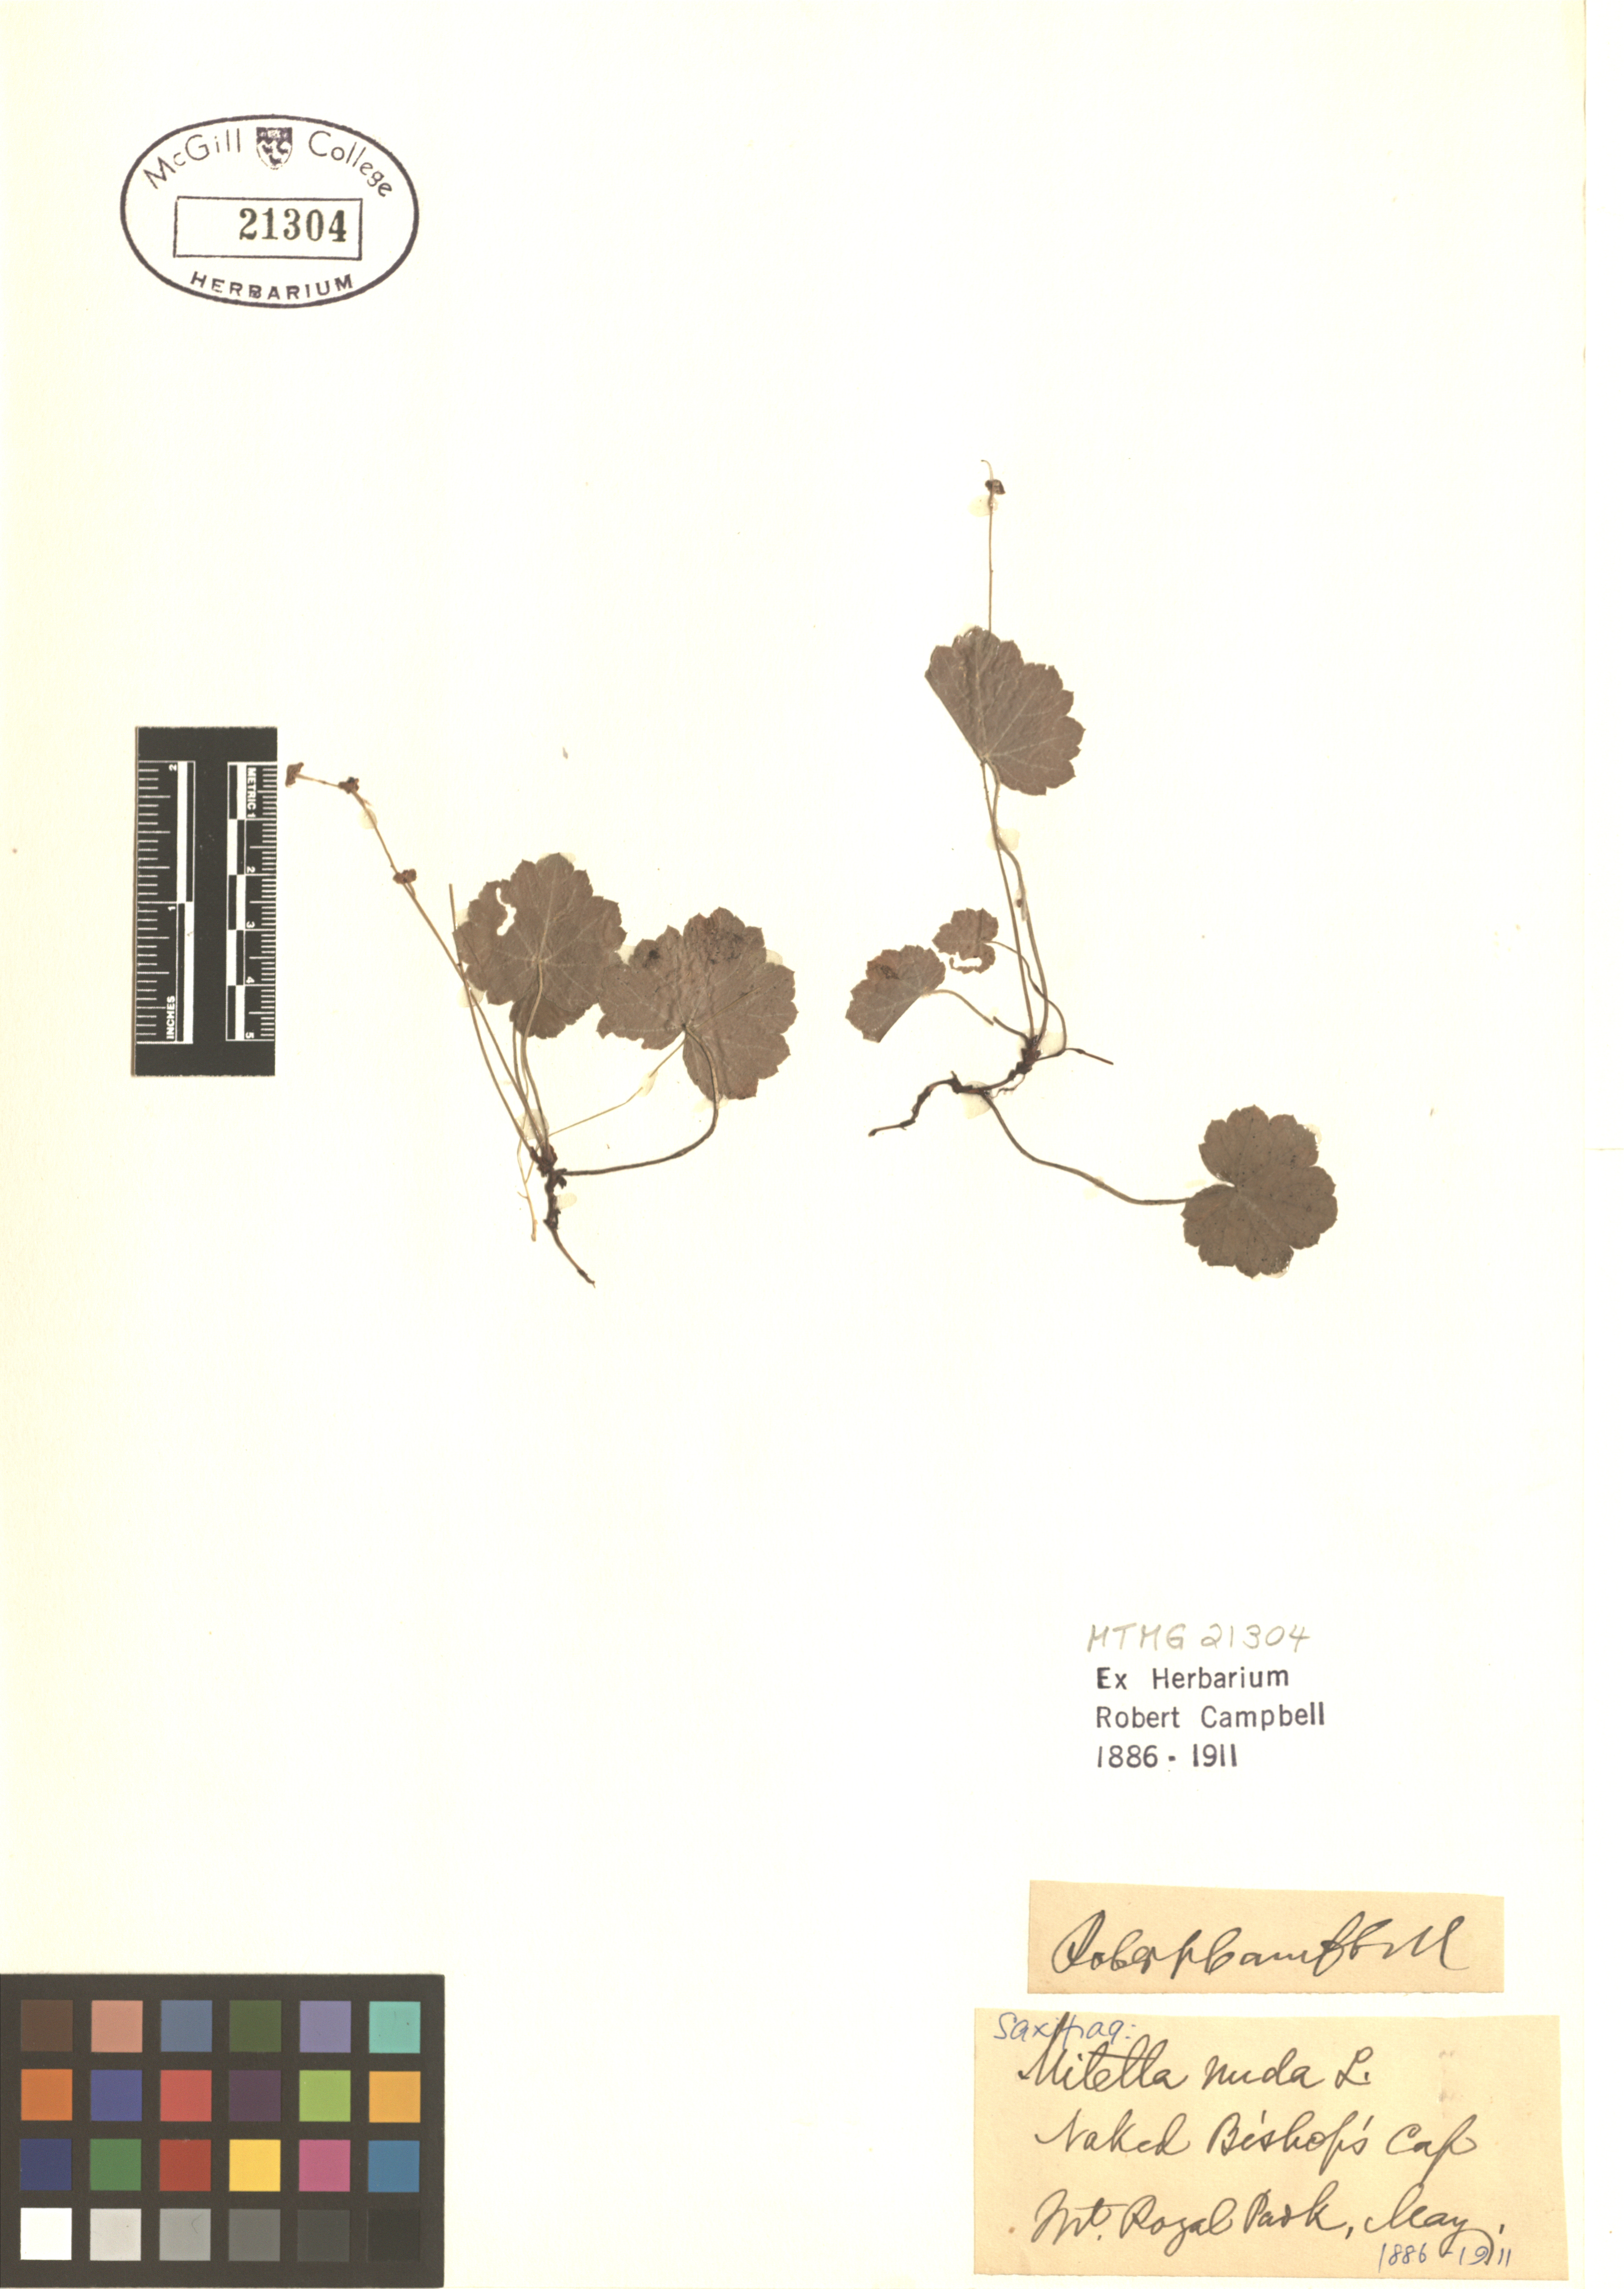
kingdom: Plantae
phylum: Tracheophyta
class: Magnoliopsida
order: Saxifragales
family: Saxifragaceae
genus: Mitella
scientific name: Mitella nuda
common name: Bare-stemmed bishop's-cap
